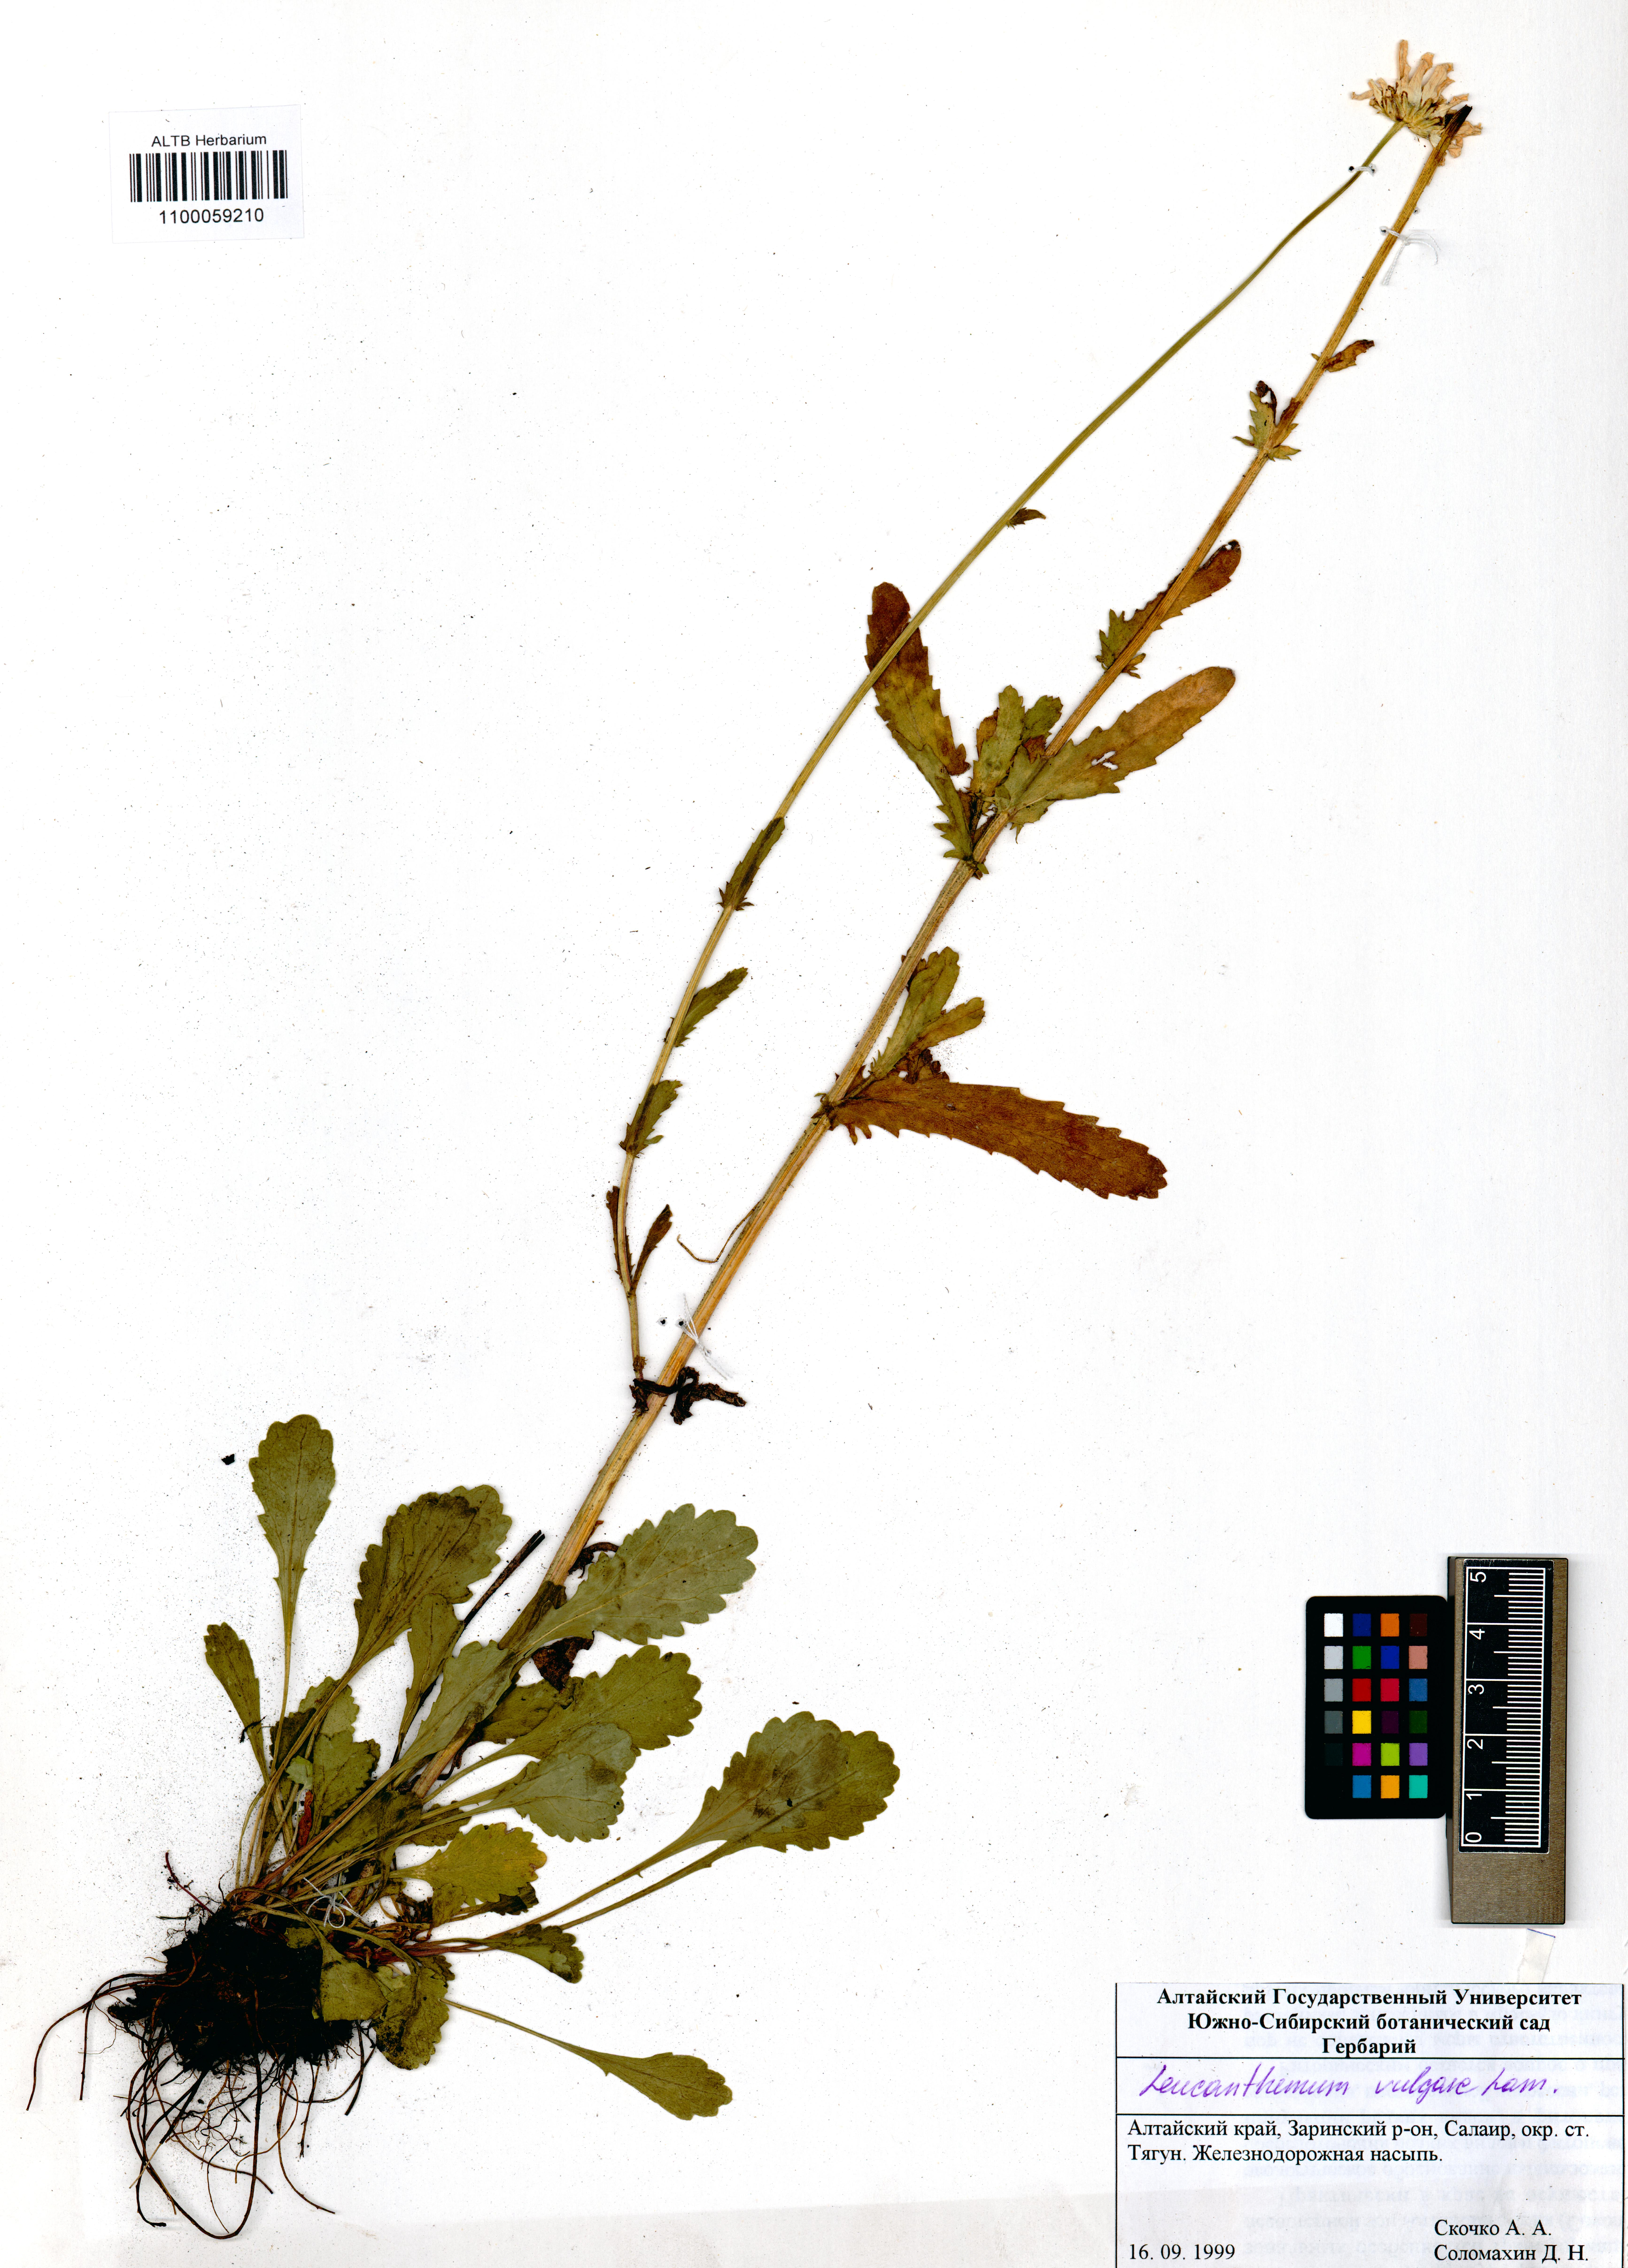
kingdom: Plantae
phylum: Tracheophyta
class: Magnoliopsida
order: Asterales
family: Asteraceae
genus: Leucanthemum
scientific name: Leucanthemum vulgare
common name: Oxeye daisy
